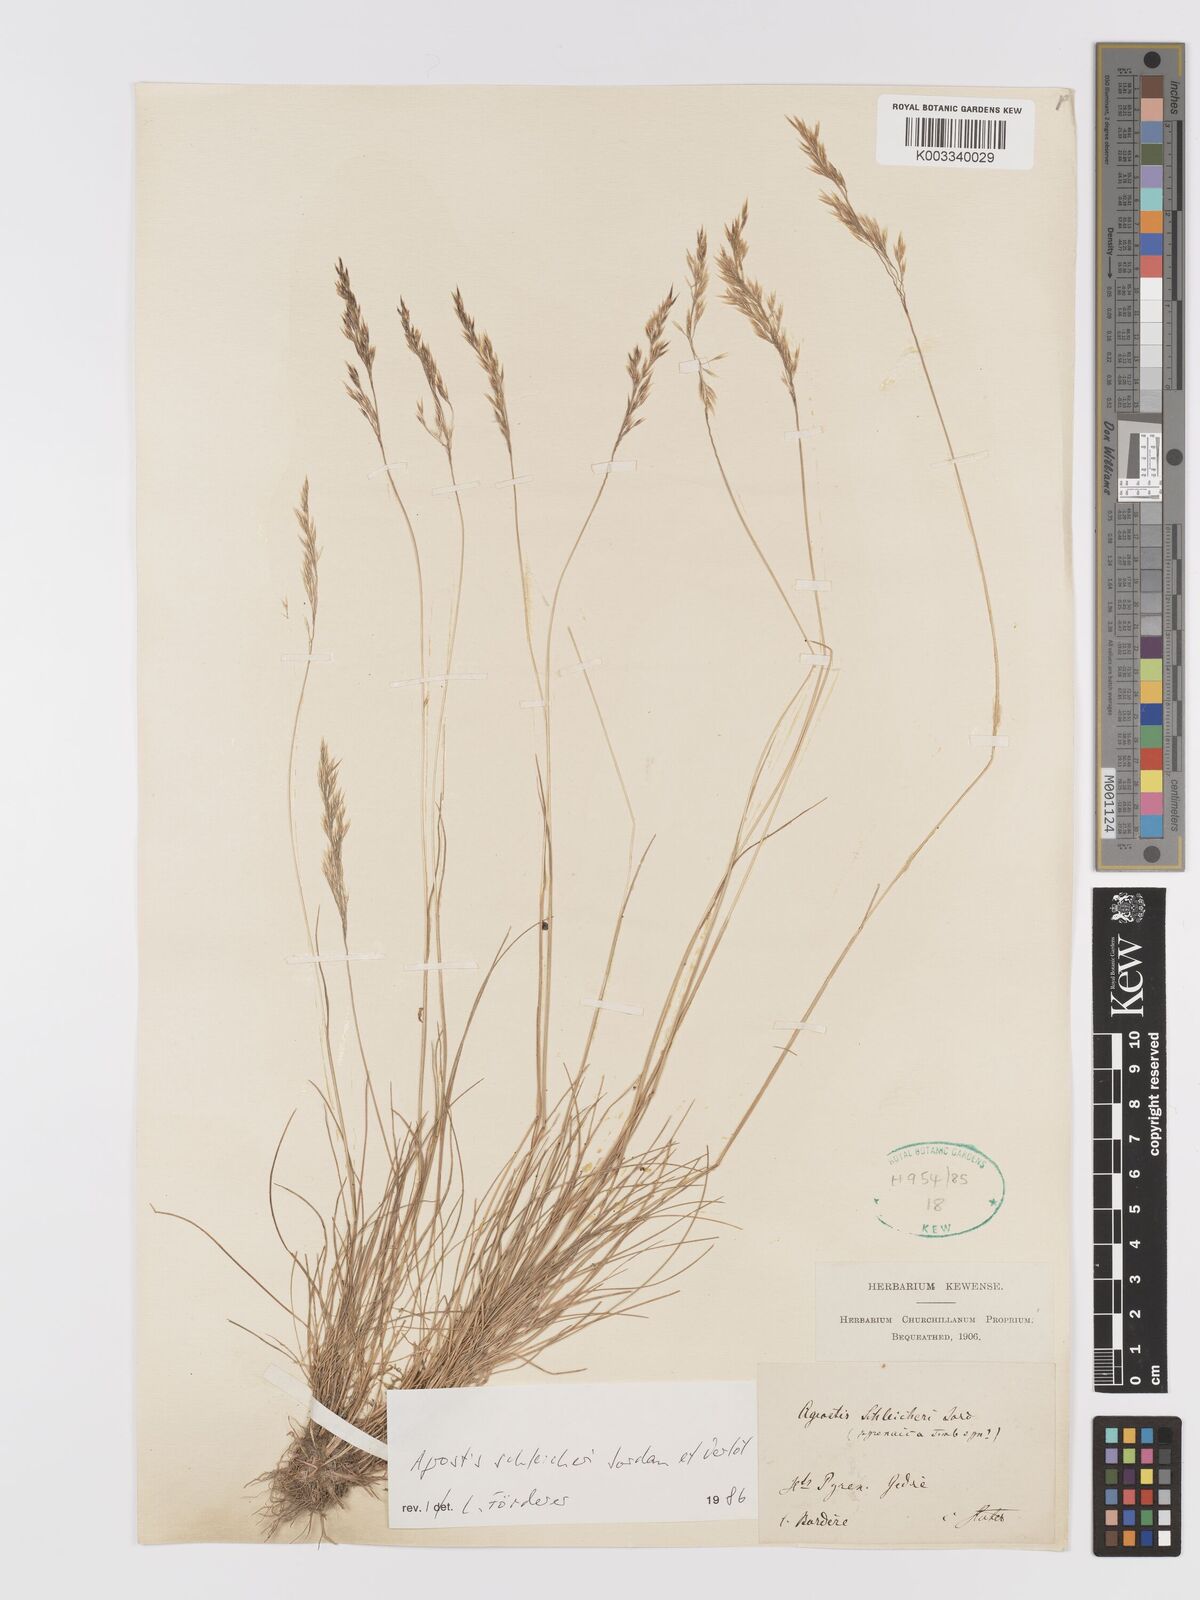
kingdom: Plantae
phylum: Tracheophyta
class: Liliopsida
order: Poales
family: Poaceae
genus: Alpagrostis
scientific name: Alpagrostis schleicheri
